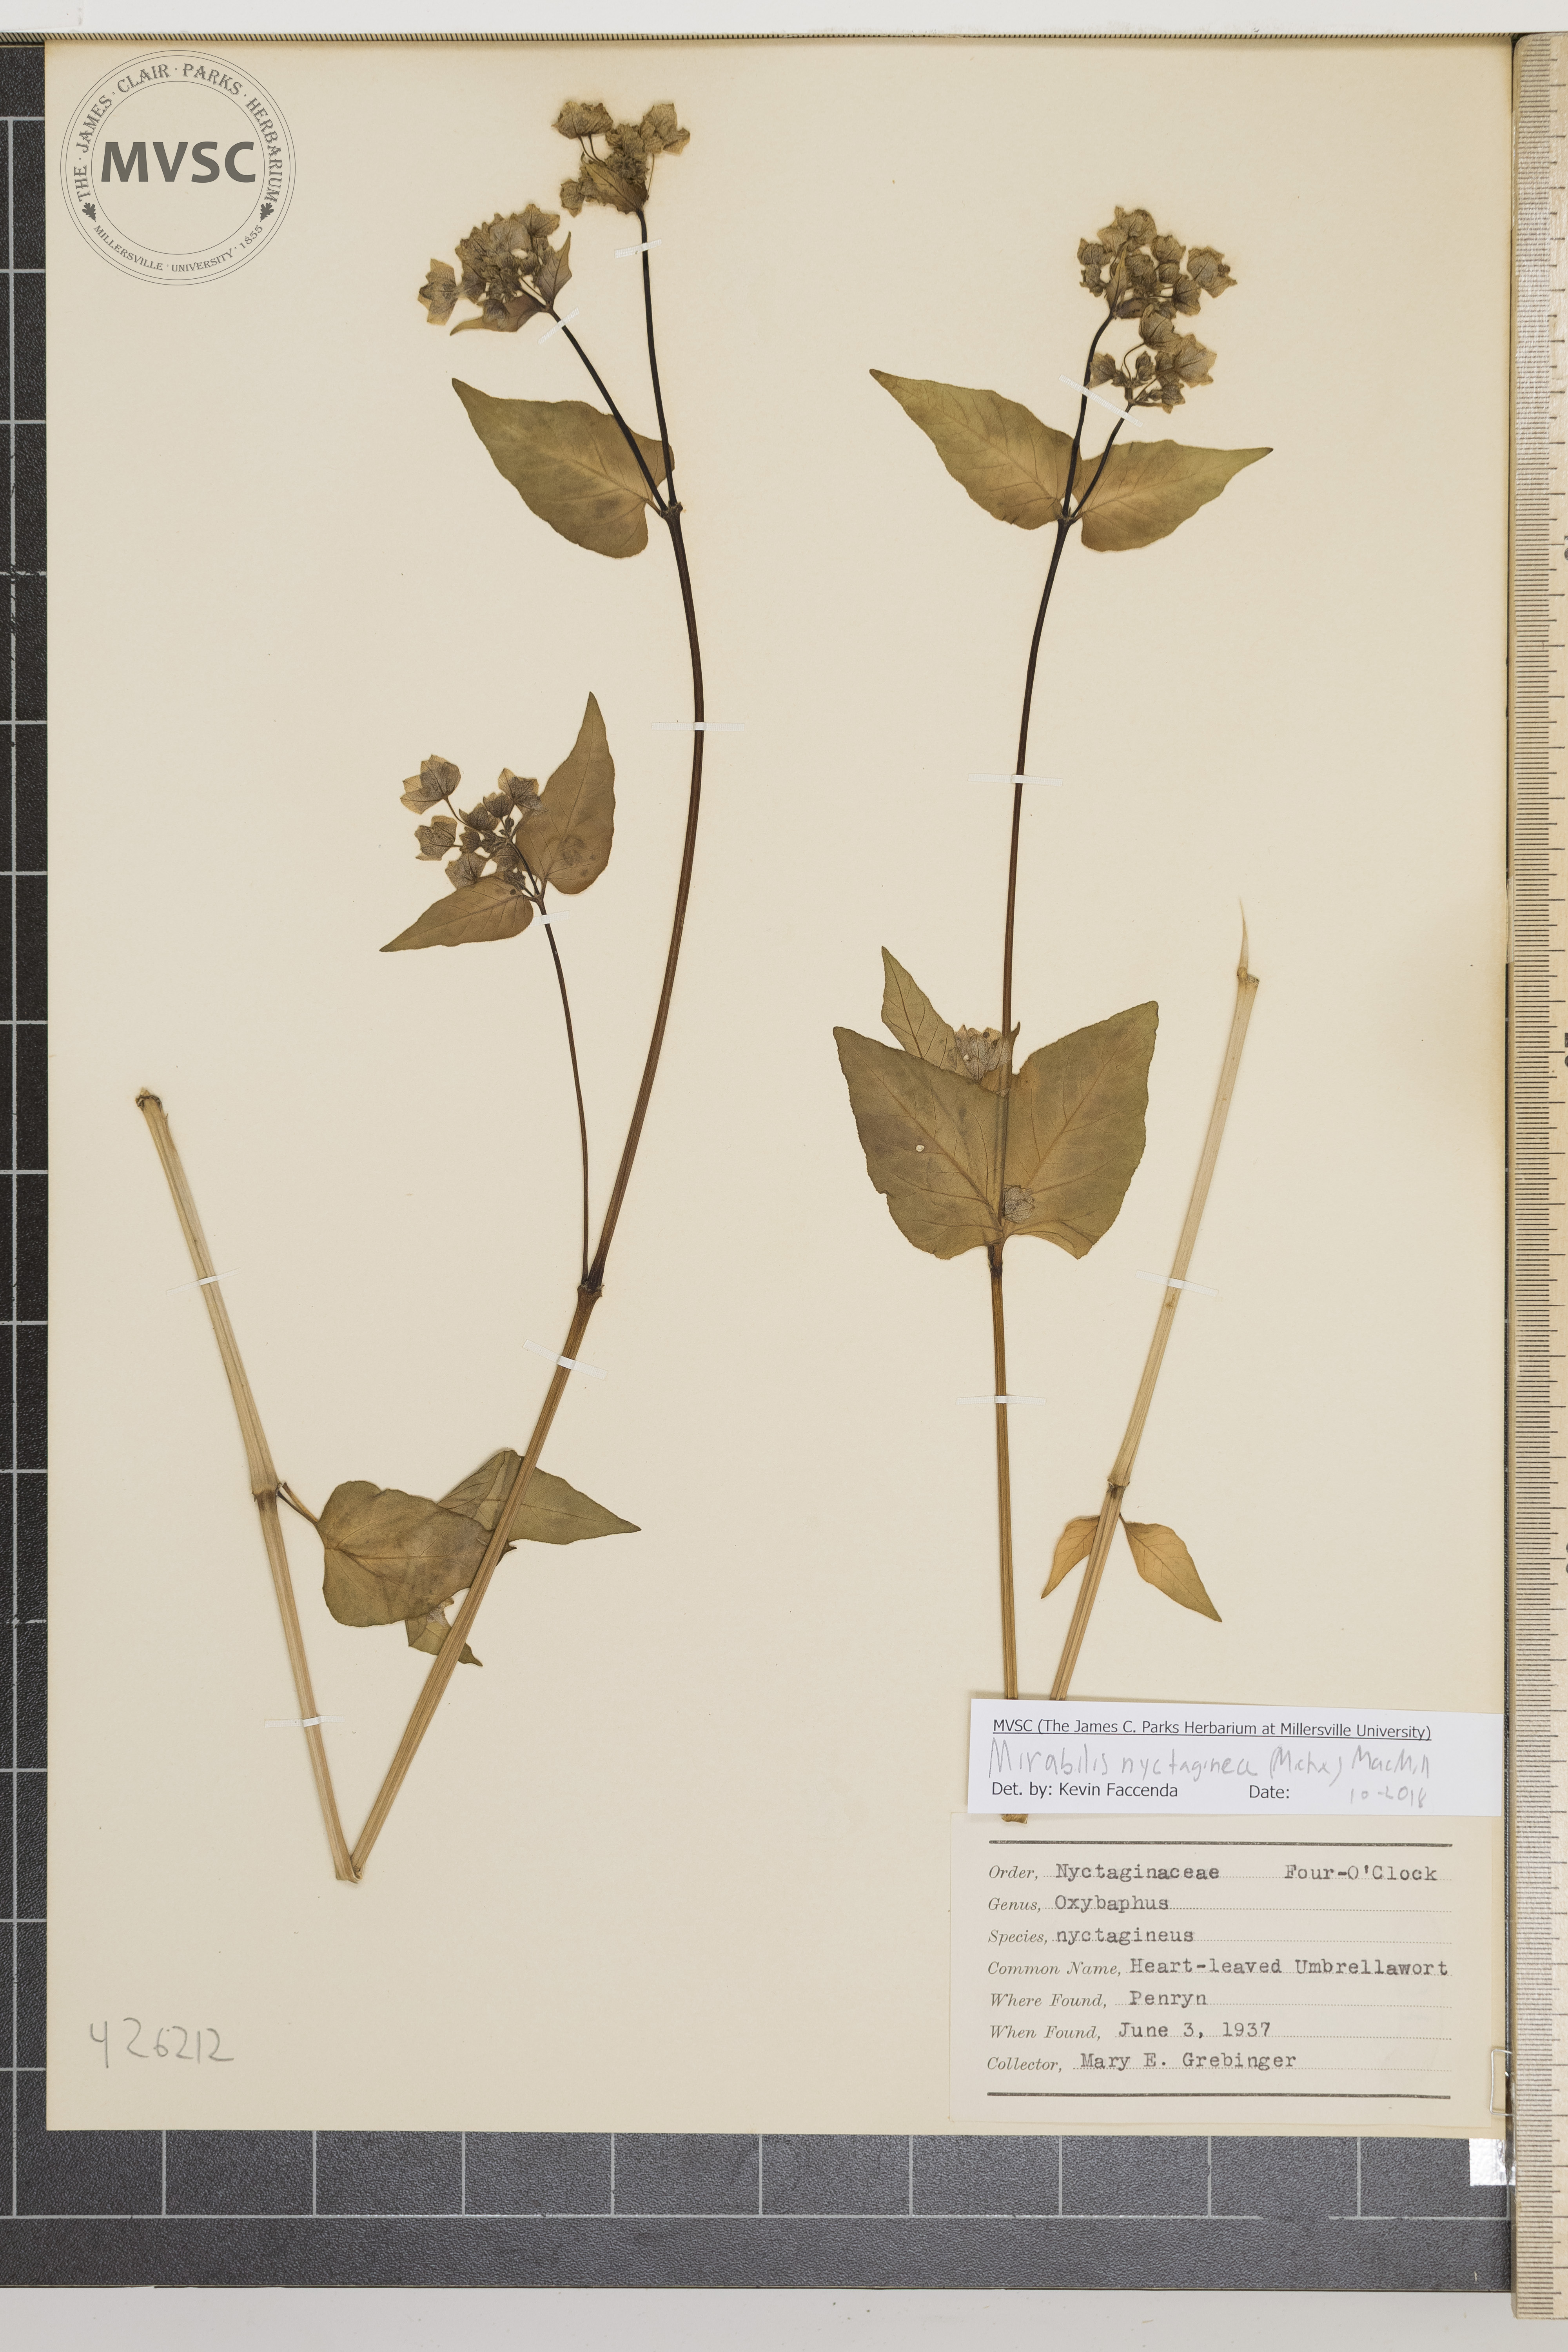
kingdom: Plantae
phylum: Tracheophyta
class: Magnoliopsida
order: Caryophyllales
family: Nyctaginaceae
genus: Mirabilis
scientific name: Mirabilis nyctaginea
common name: Heart-leaved Umbrellawort
